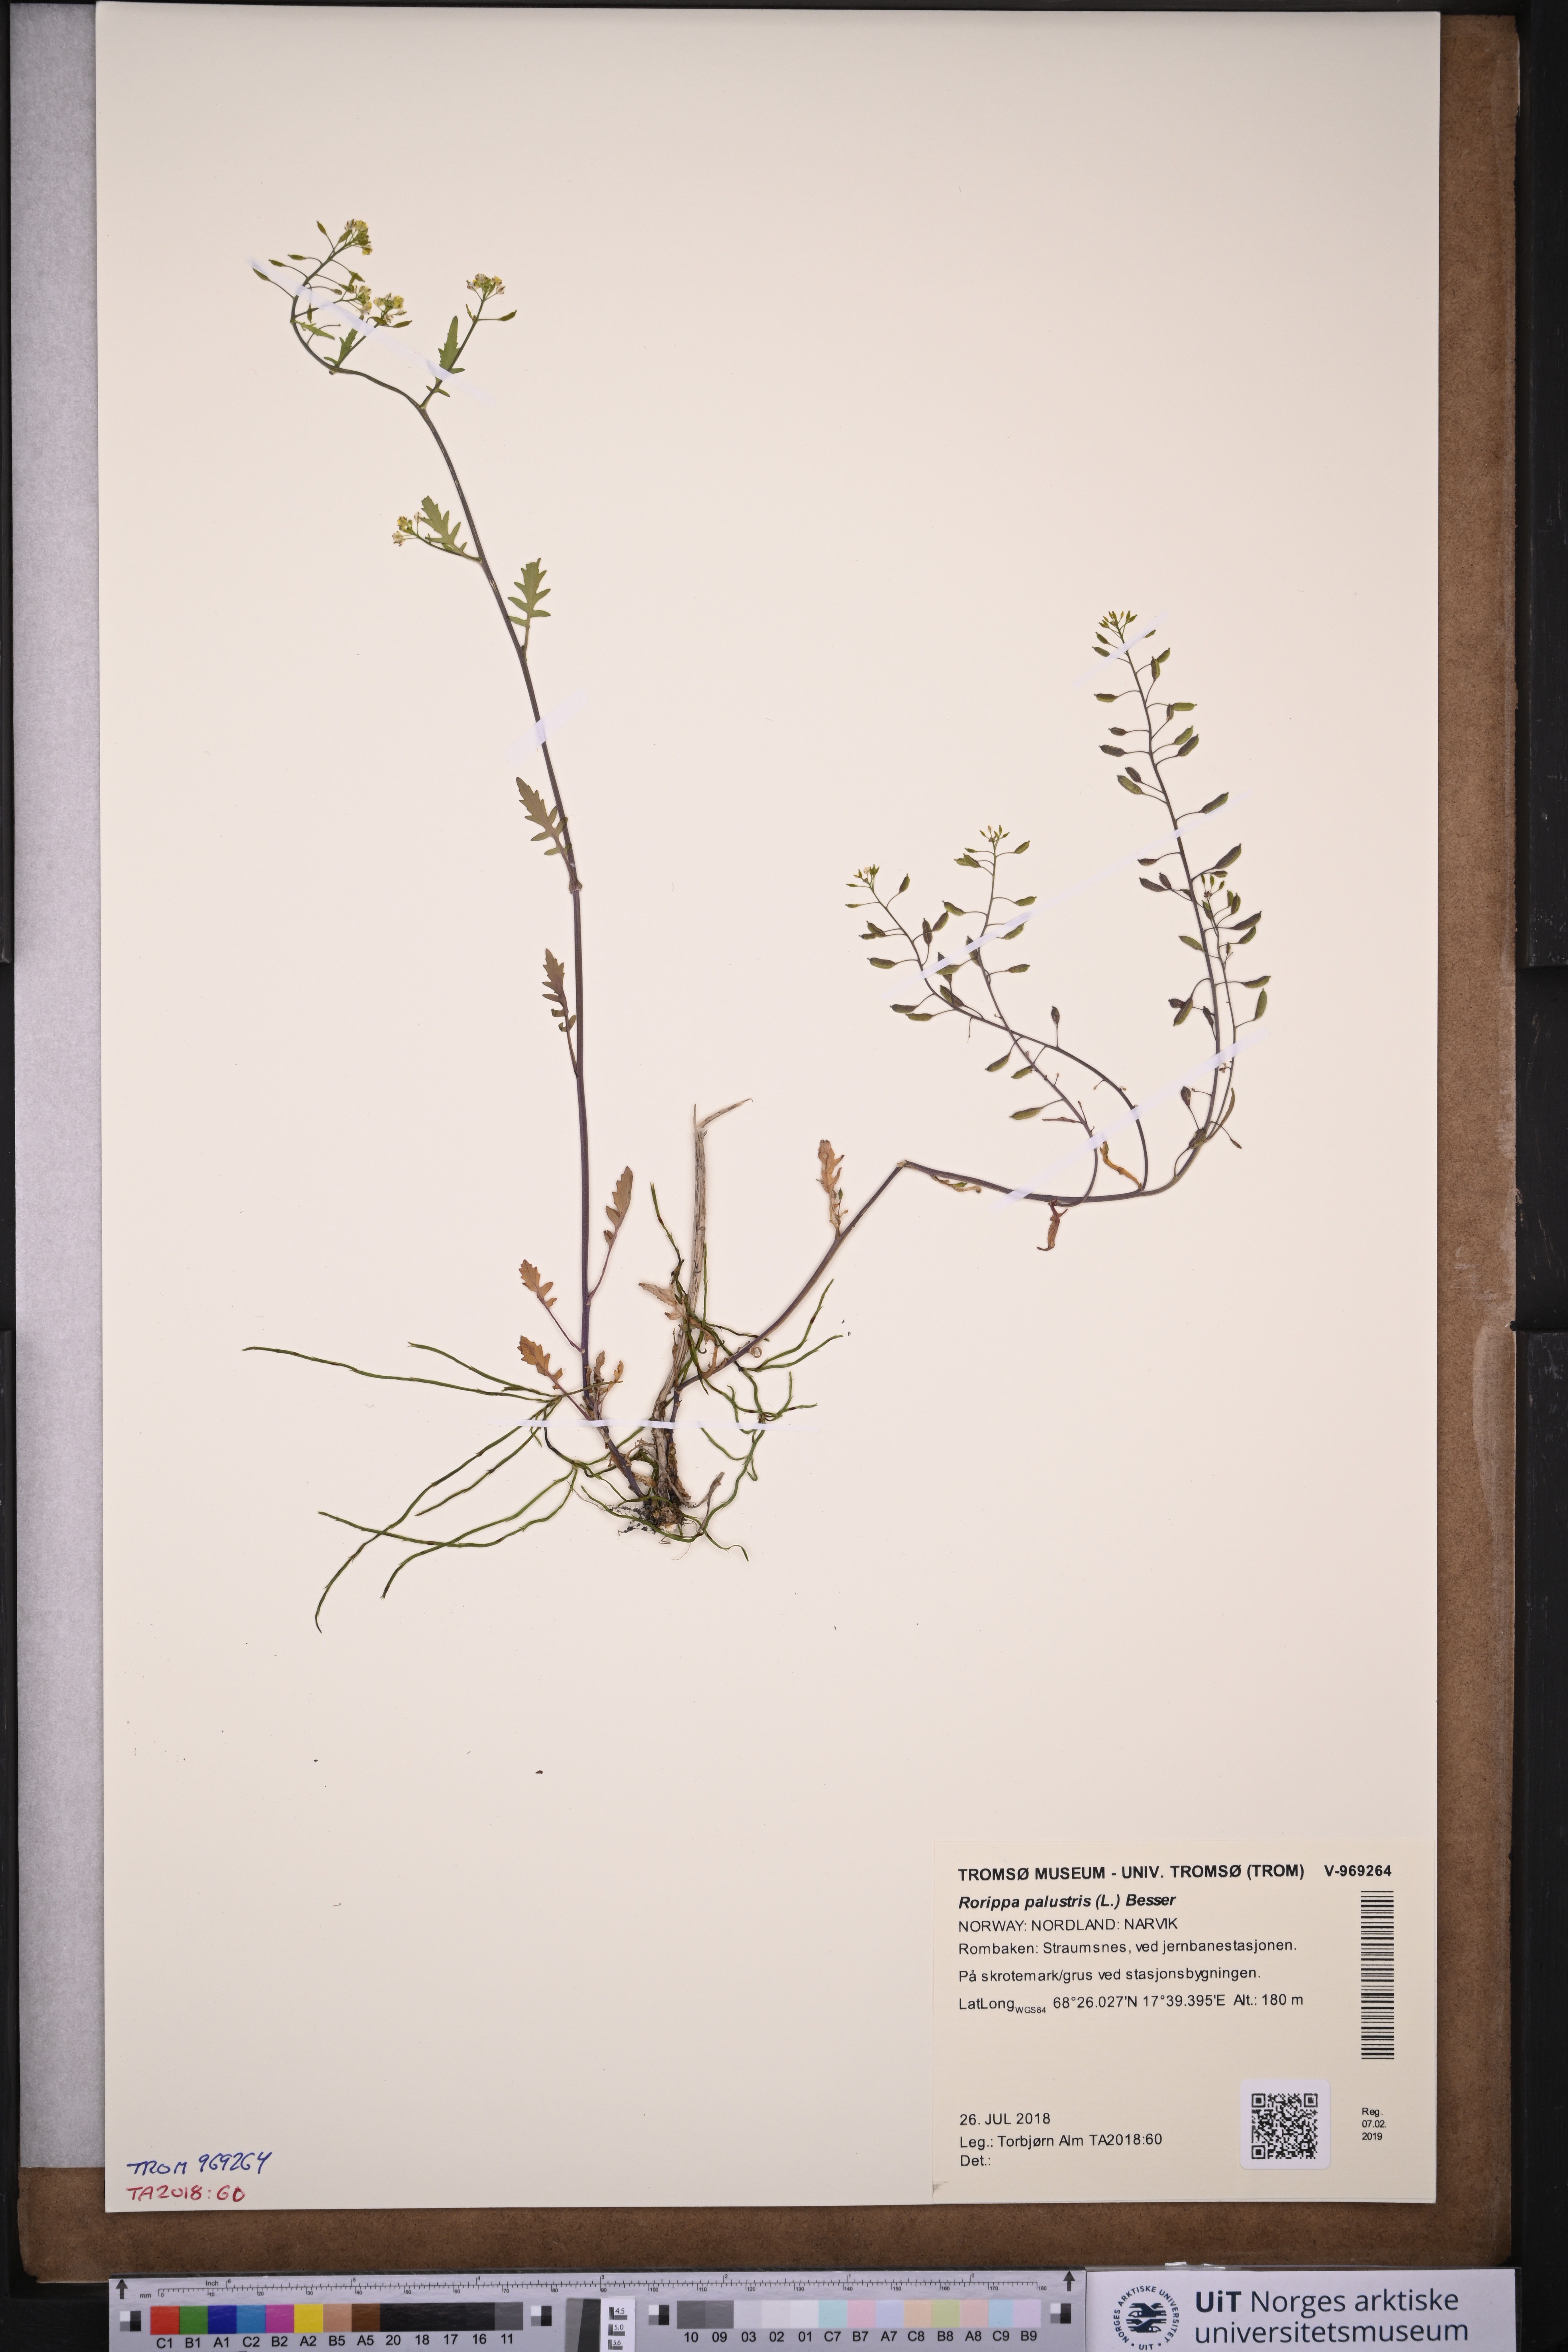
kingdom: Plantae
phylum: Tracheophyta
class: Magnoliopsida
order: Brassicales
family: Brassicaceae
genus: Rorippa
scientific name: Rorippa palustris
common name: Marsh yellow-cress
